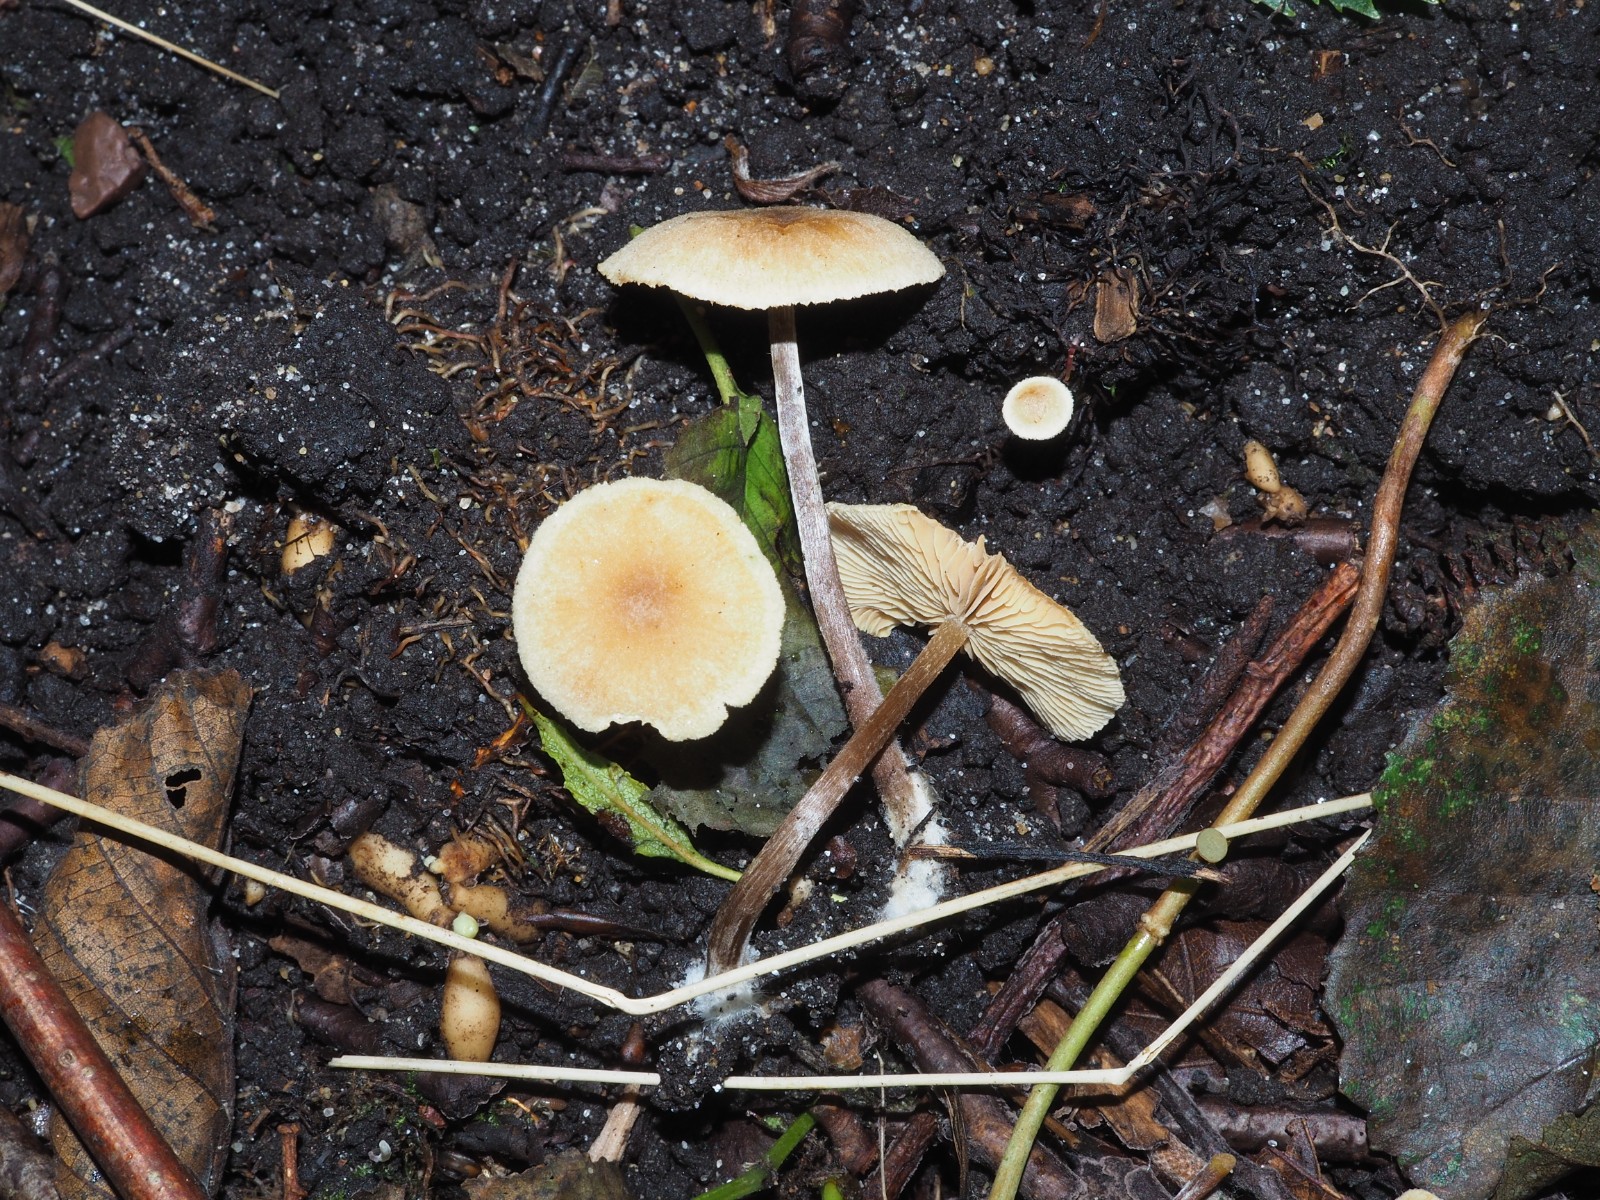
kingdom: Fungi
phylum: Basidiomycota
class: Agaricomycetes
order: Agaricales
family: Omphalotaceae
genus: Gymnopus
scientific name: Gymnopus dryophilus
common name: løv-fladhat
